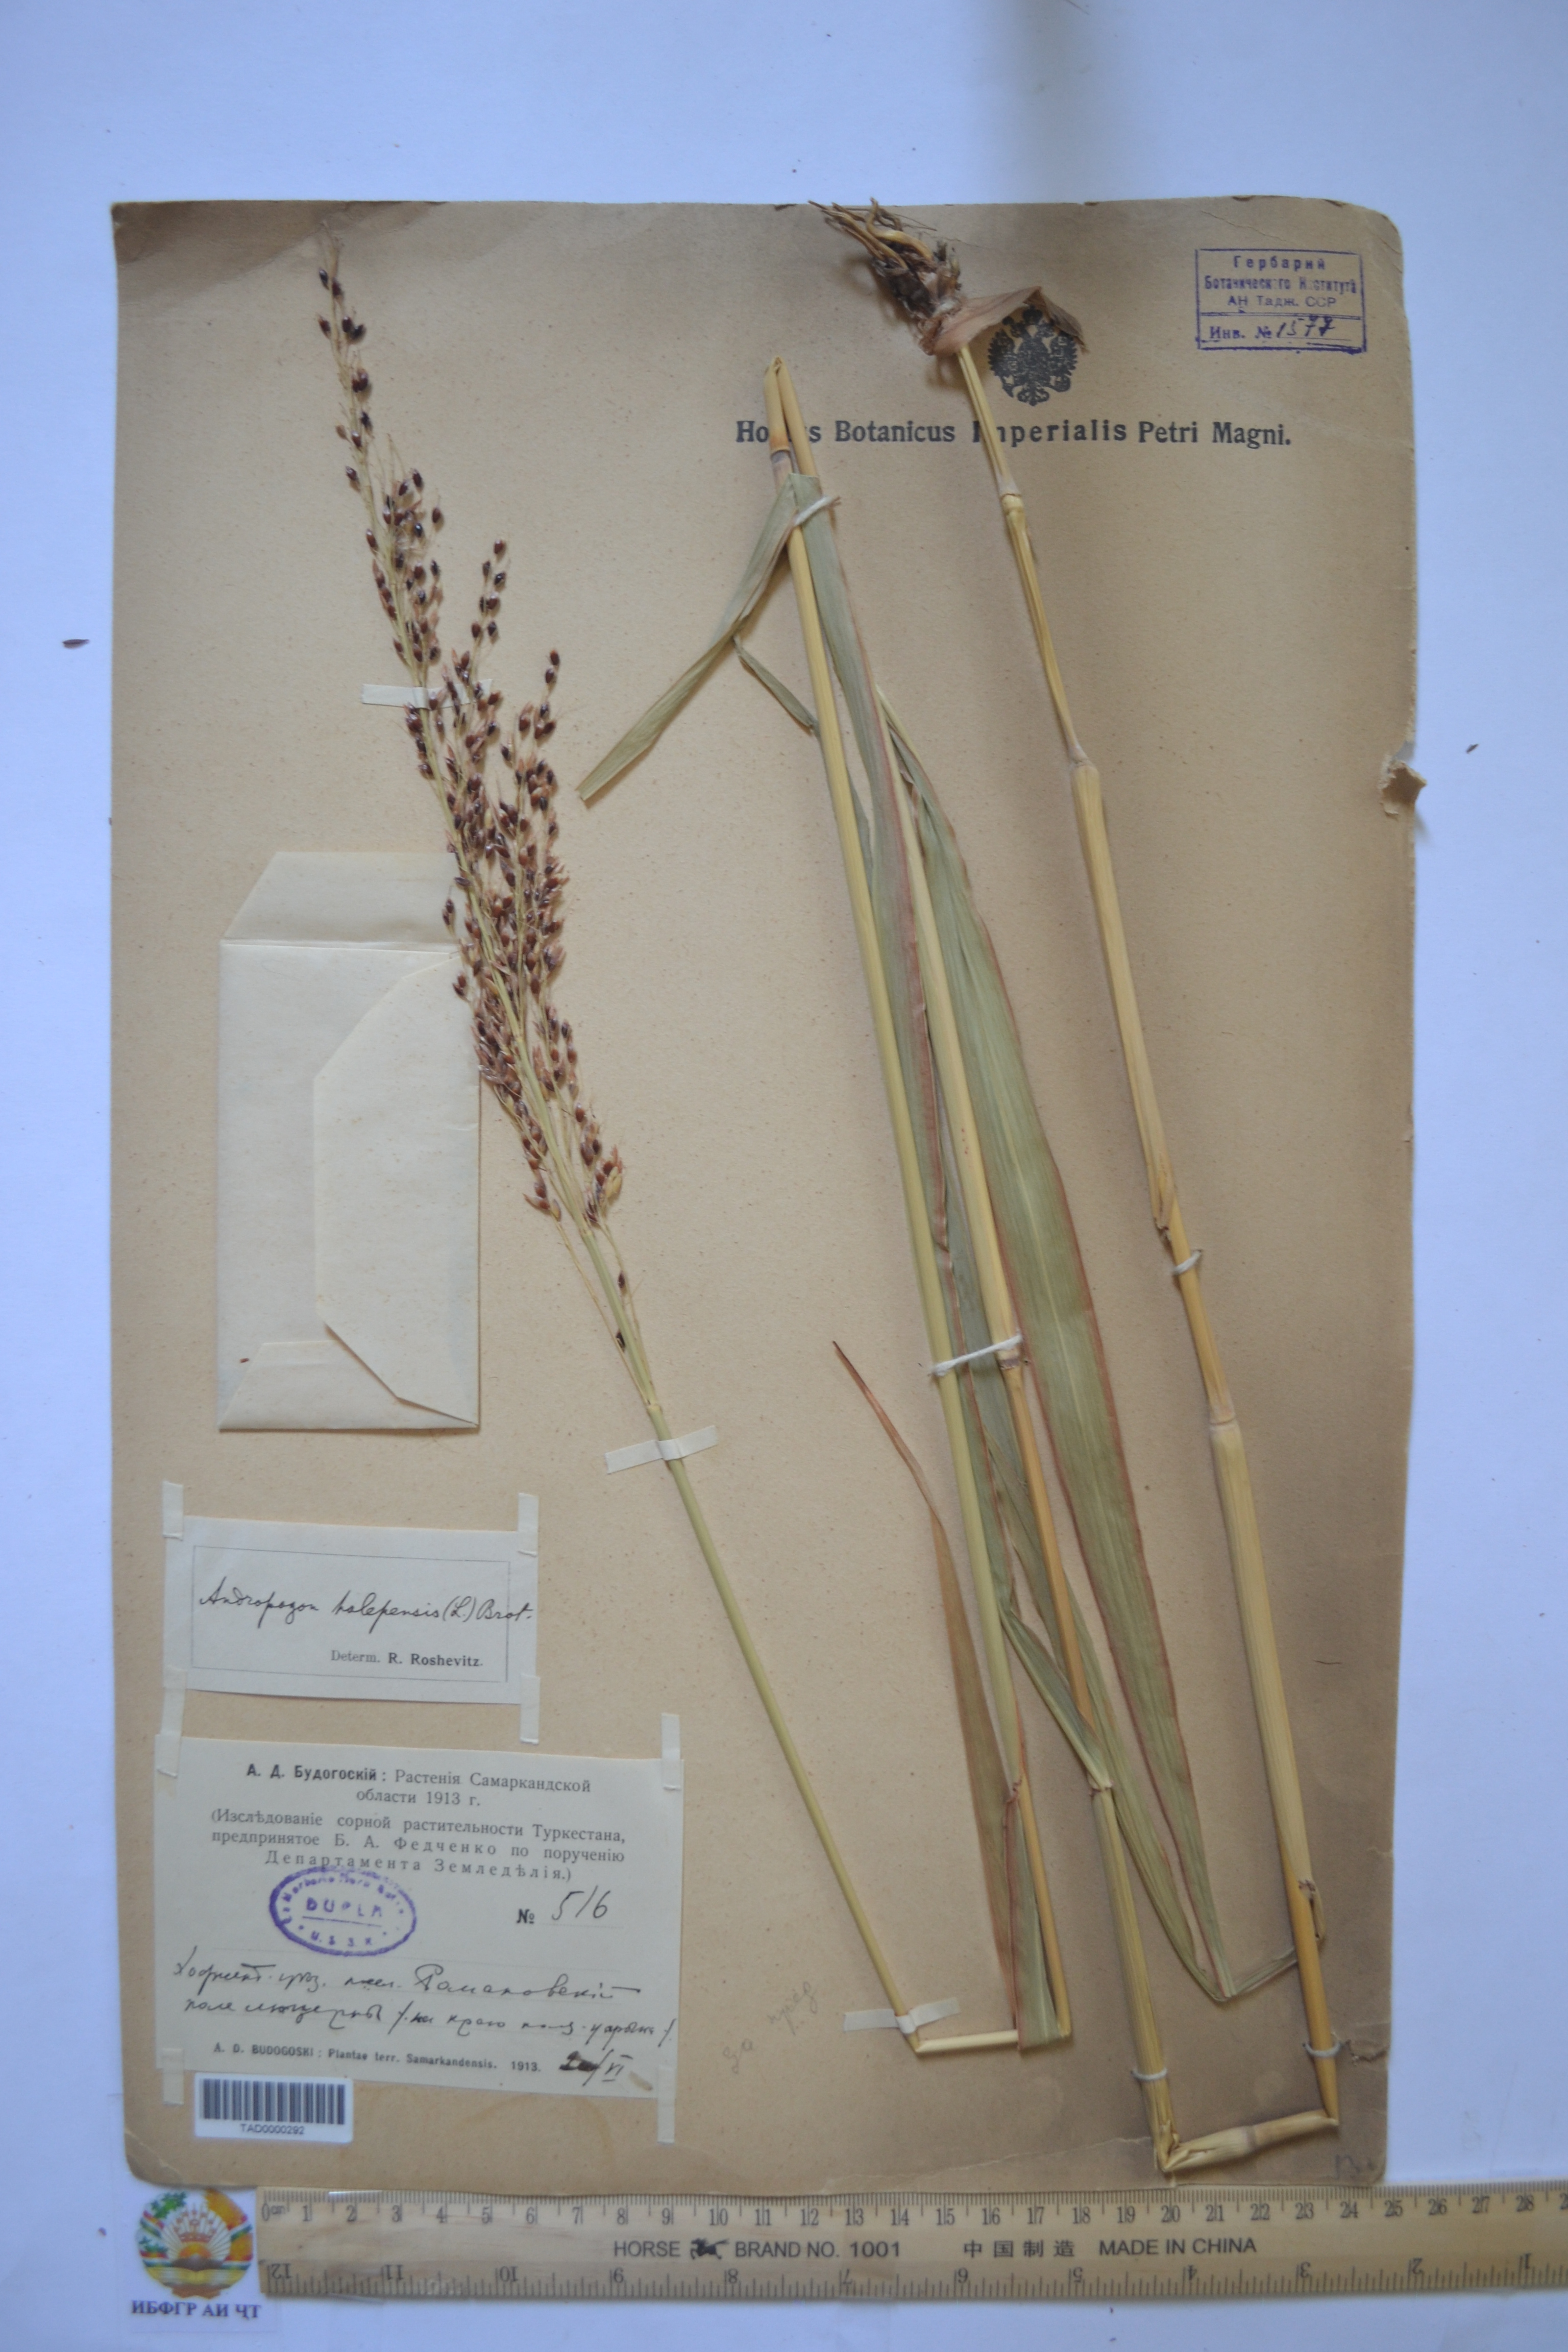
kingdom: Plantae
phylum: Tracheophyta
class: Liliopsida
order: Poales
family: Poaceae
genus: Andropogon
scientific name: Andropogon halepensis
